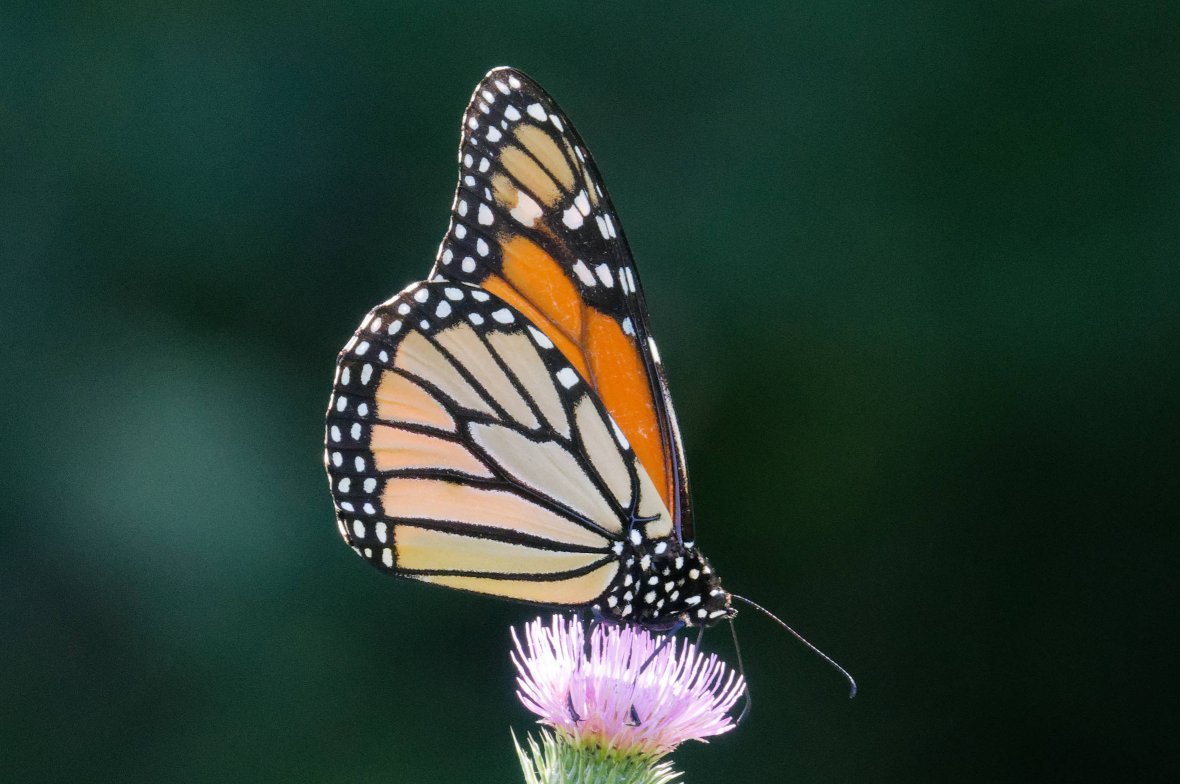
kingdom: Animalia
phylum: Arthropoda
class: Insecta
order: Lepidoptera
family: Nymphalidae
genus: Danaus
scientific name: Danaus plexippus
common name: Monarch
